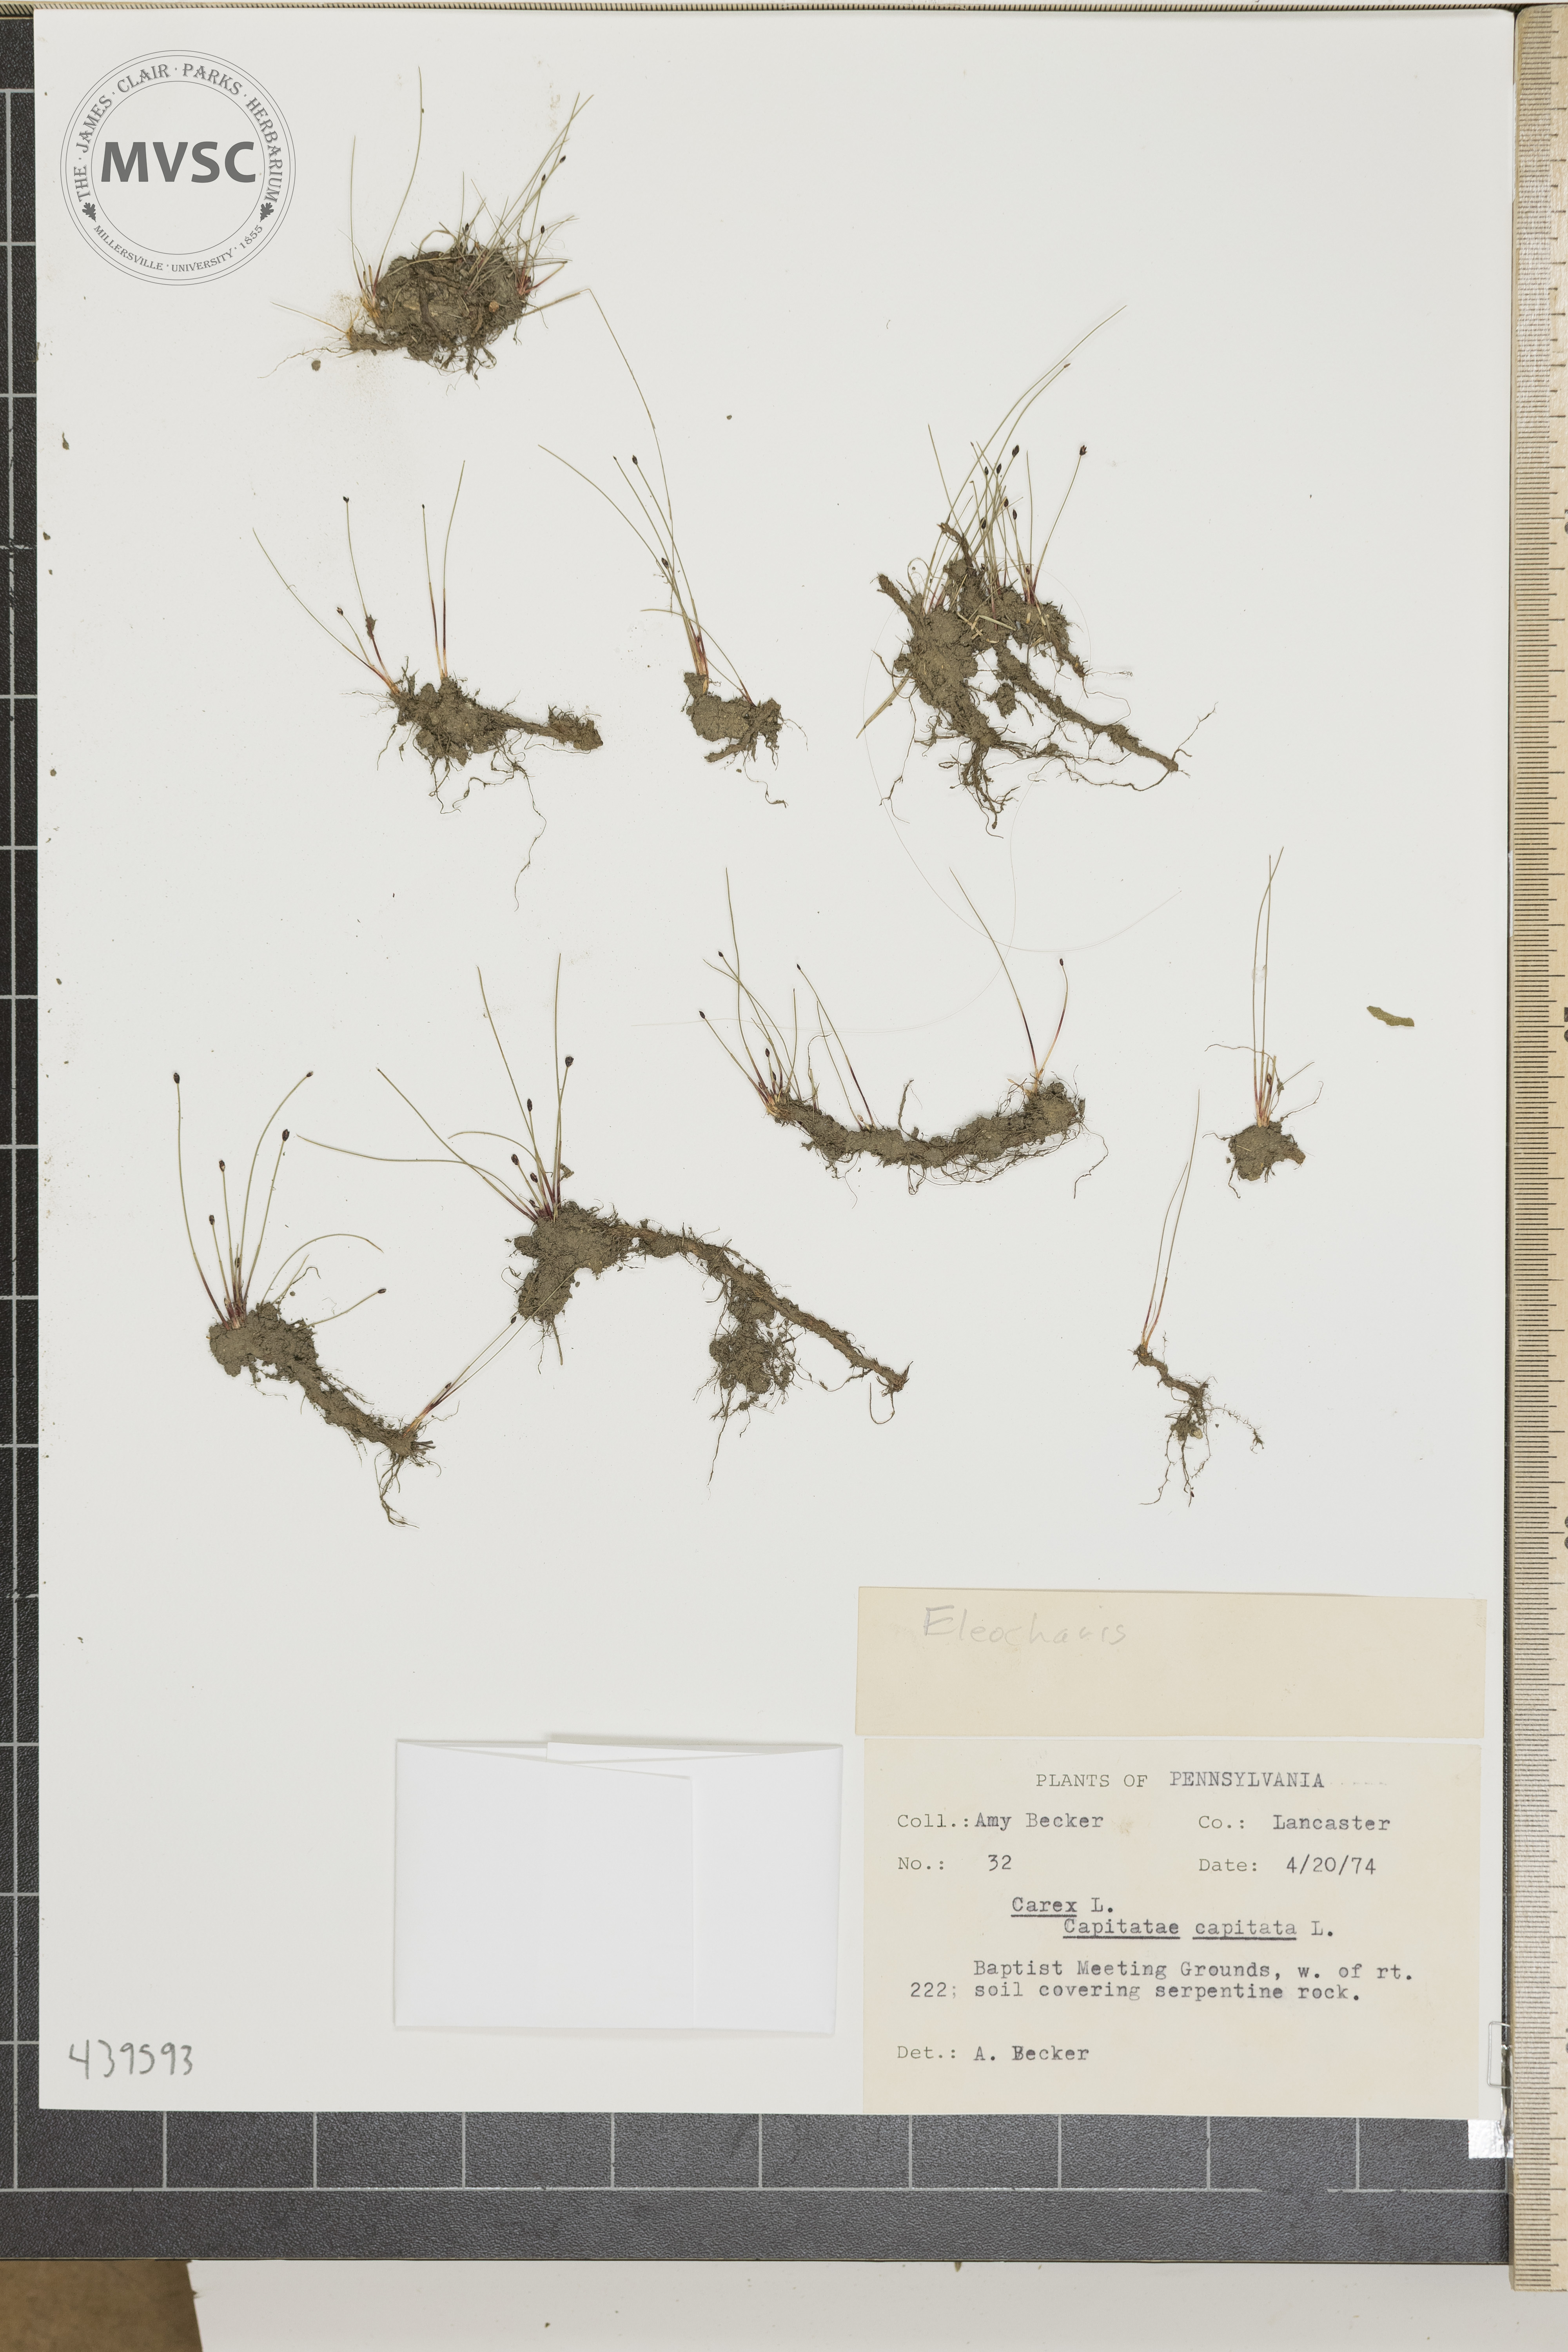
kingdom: Plantae
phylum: Tracheophyta
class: Liliopsida
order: Poales
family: Cyperaceae
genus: Eleocharis
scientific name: Eleocharis
